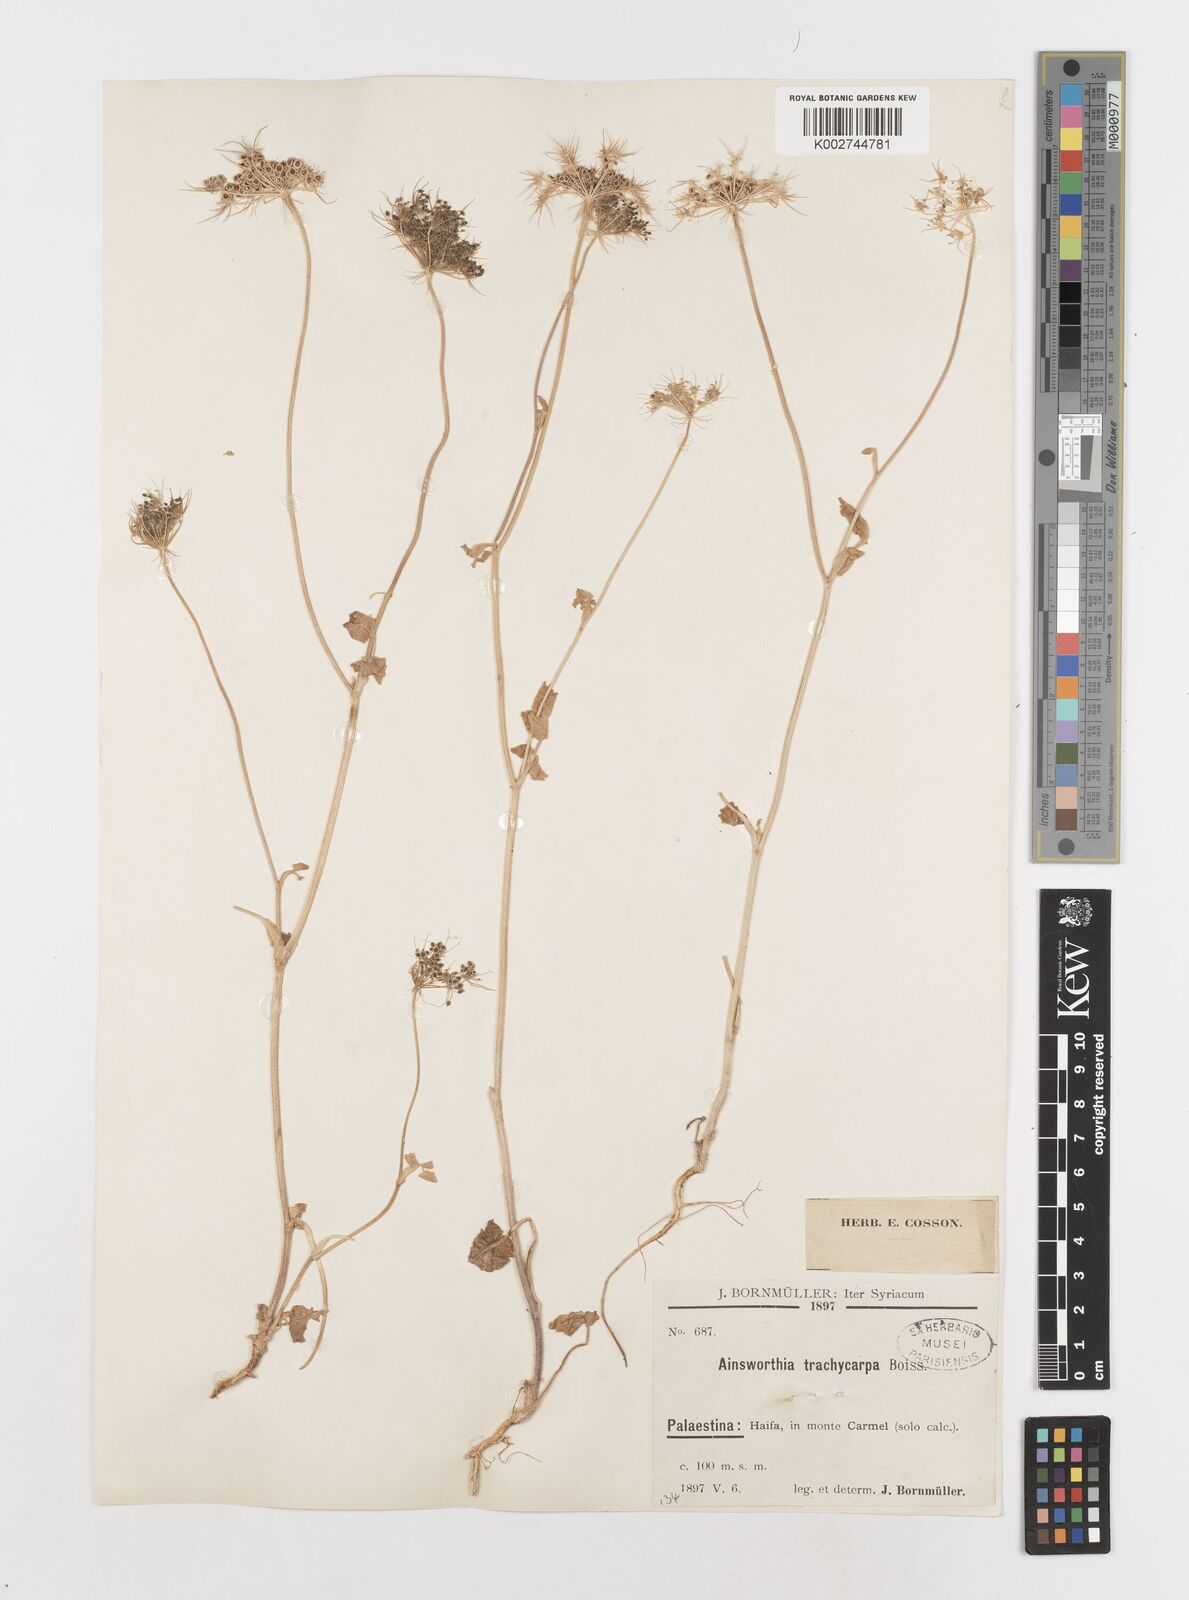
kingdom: Plantae
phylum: Tracheophyta
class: Magnoliopsida
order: Apiales
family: Apiaceae
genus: Ainsworthia
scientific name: Ainsworthia trachycarpa
